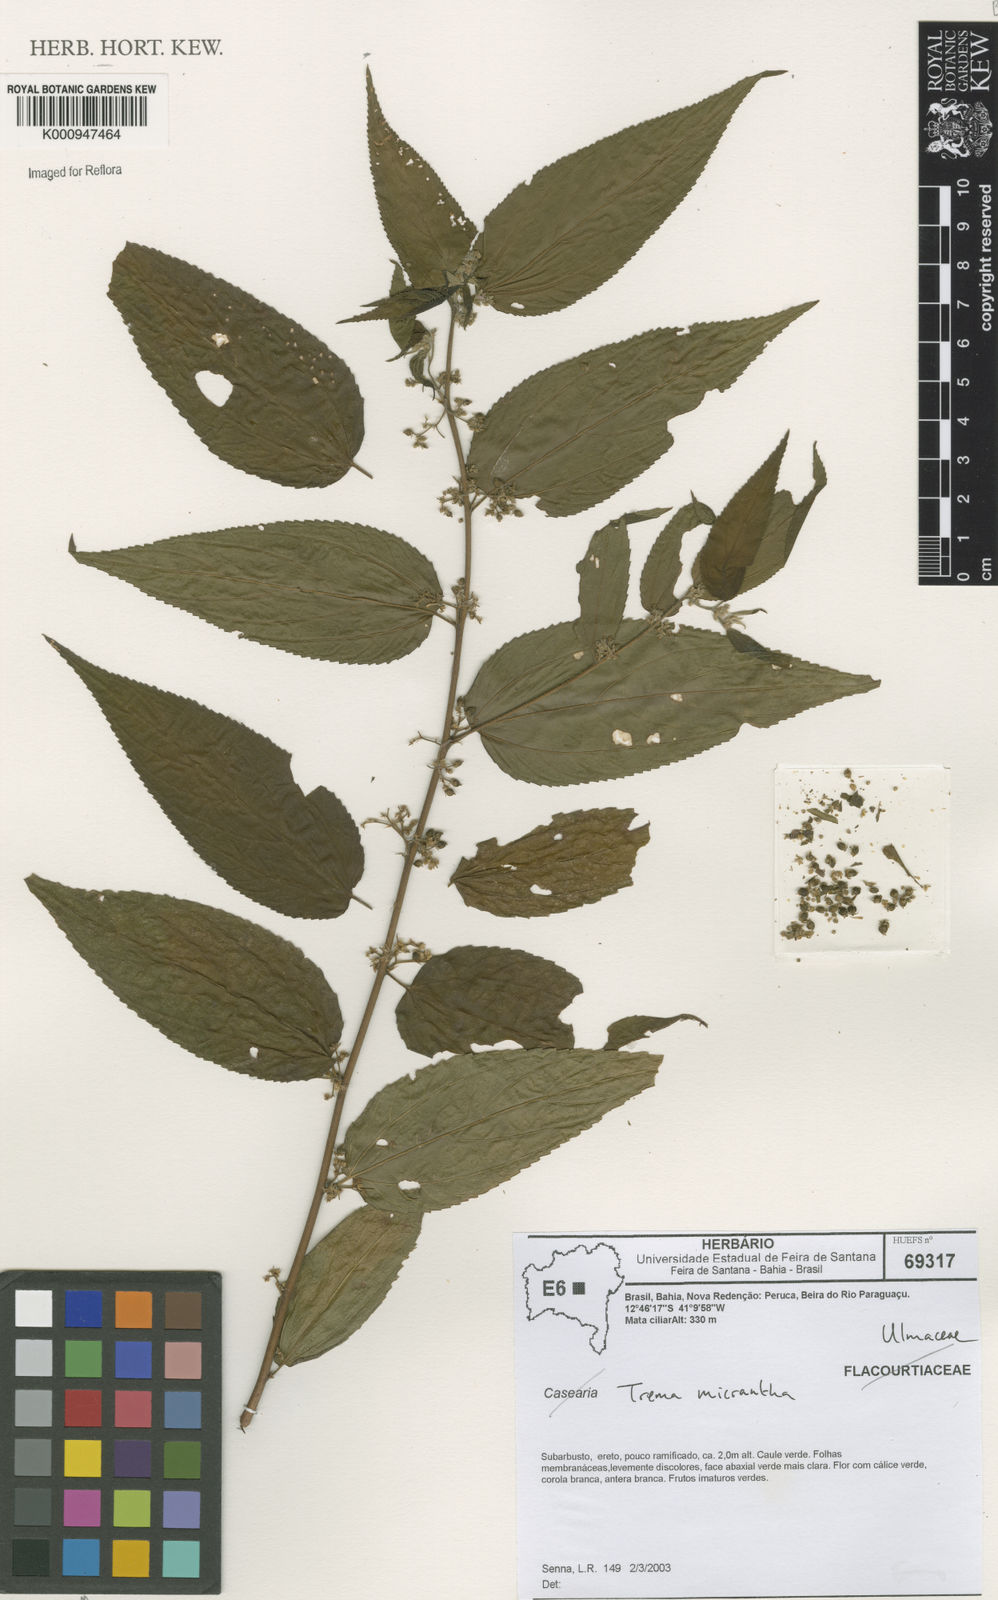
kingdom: Plantae
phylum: Tracheophyta
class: Magnoliopsida
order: Rosales
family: Cannabaceae
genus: Trema
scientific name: Trema micranthum
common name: Jamaican nettletree
